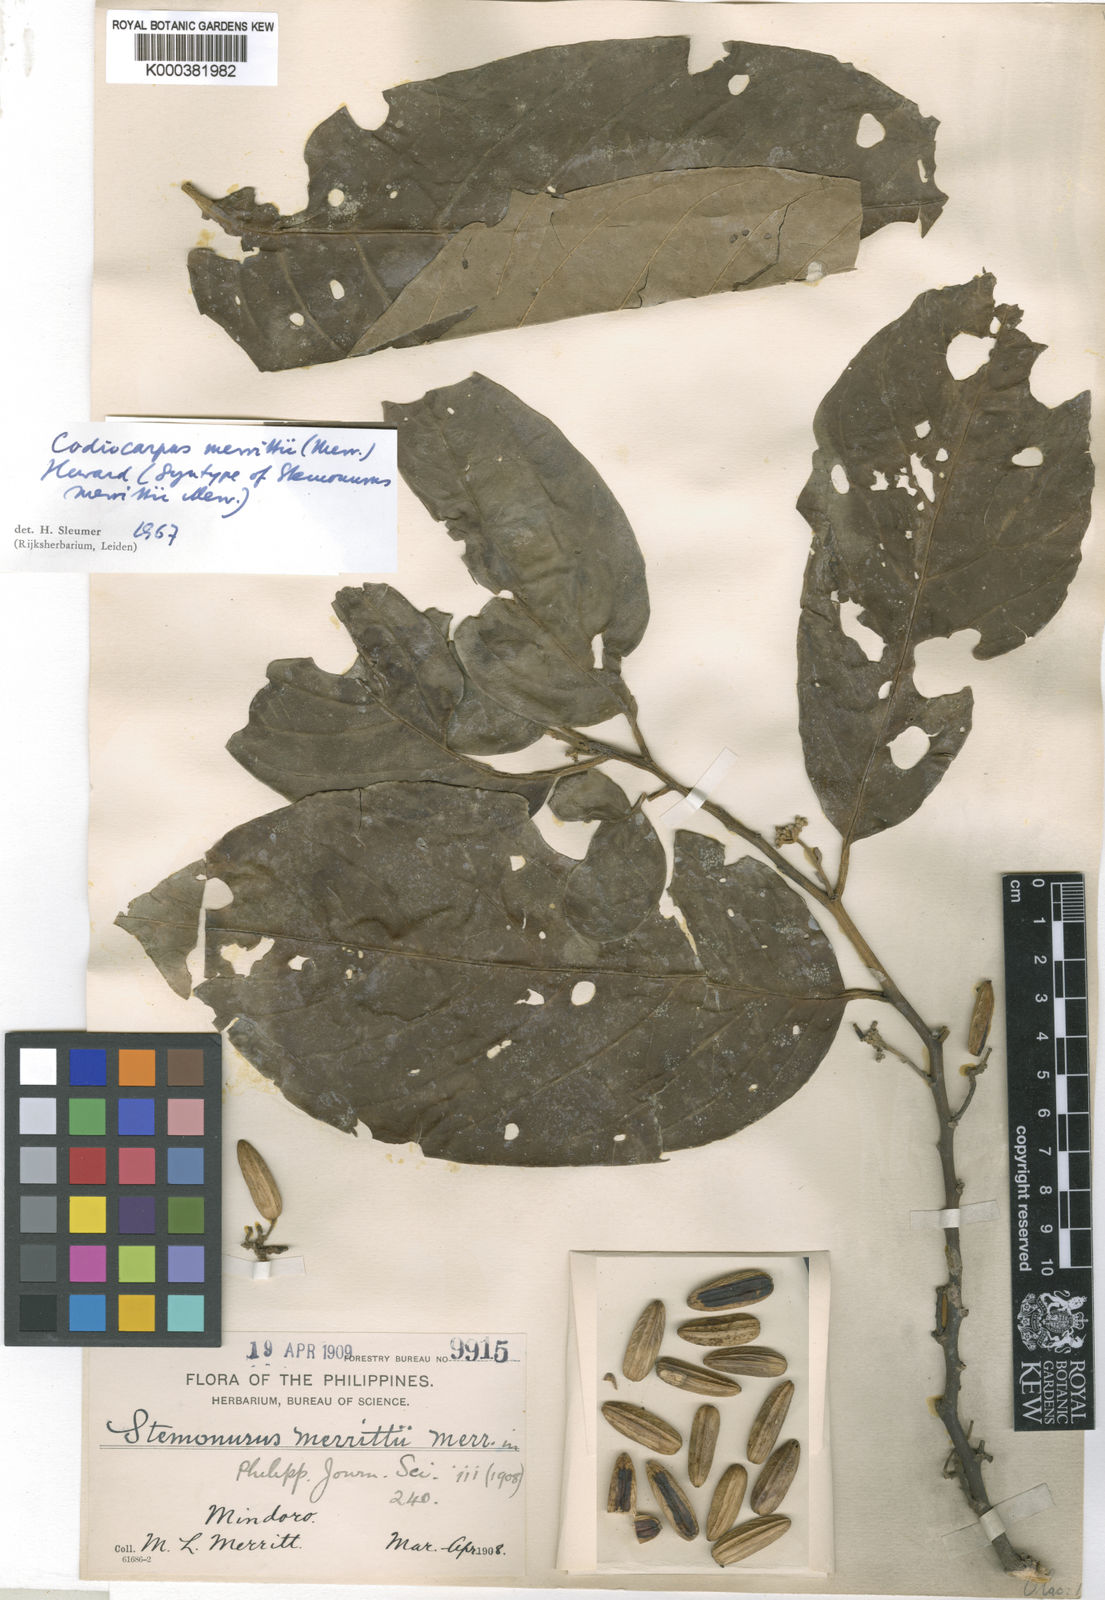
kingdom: Plantae
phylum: Tracheophyta
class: Magnoliopsida
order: Cardiopteridales
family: Stemonuraceae
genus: Codiocarpus
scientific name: Codiocarpus merrittii
